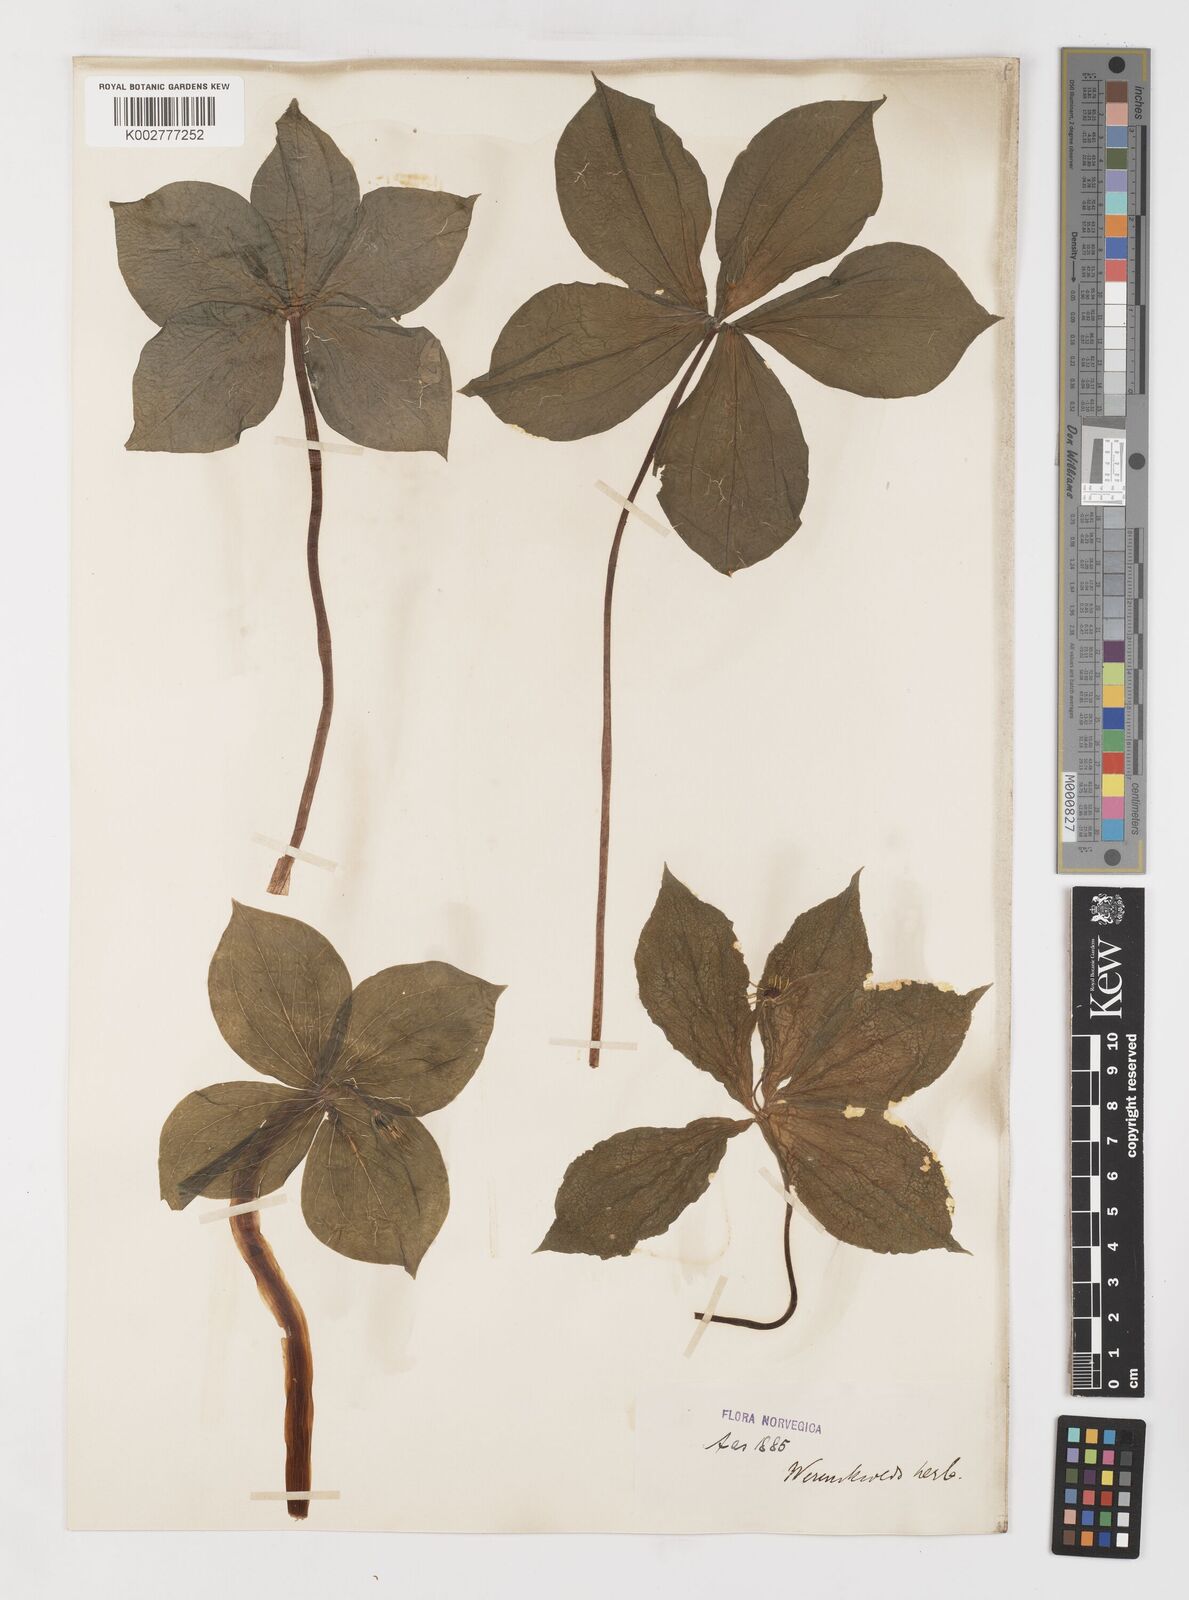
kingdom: Plantae
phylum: Tracheophyta
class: Liliopsida
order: Liliales
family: Melanthiaceae
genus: Paris
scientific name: Paris
